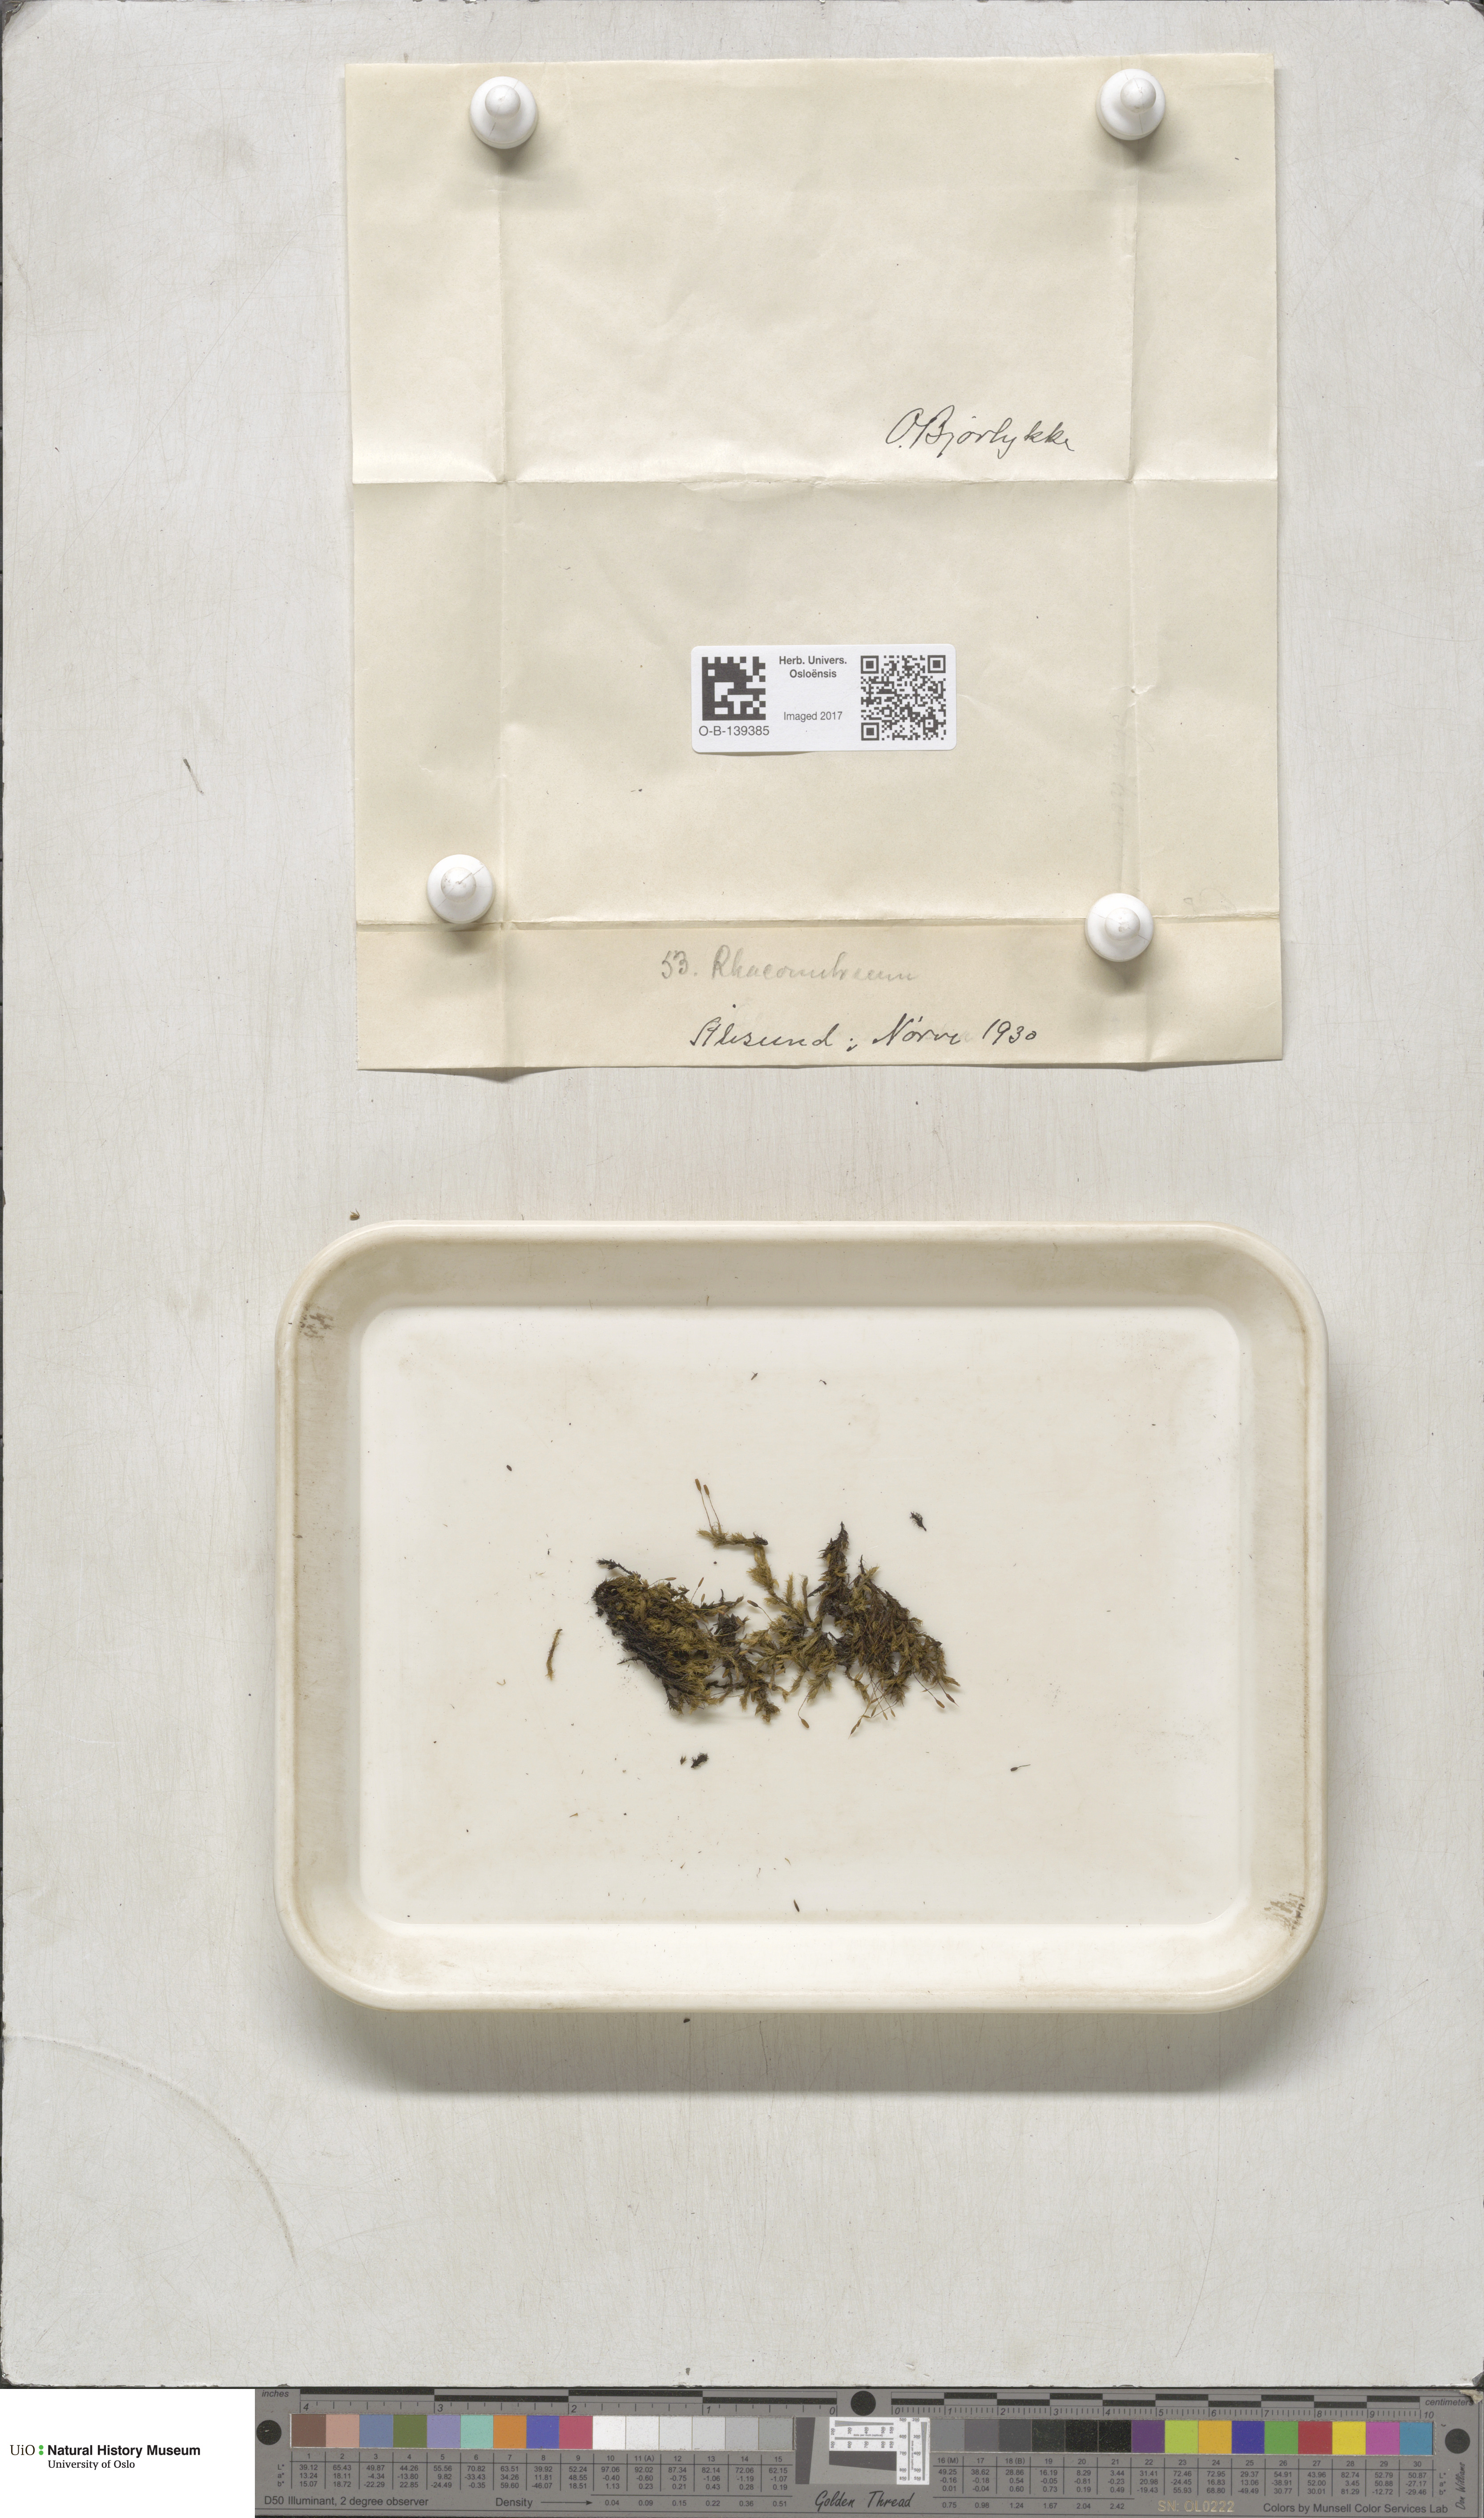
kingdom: Plantae
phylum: Bryophyta
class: Bryopsida
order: Grimmiales
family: Grimmiaceae
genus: Racomitrium
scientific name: Racomitrium
